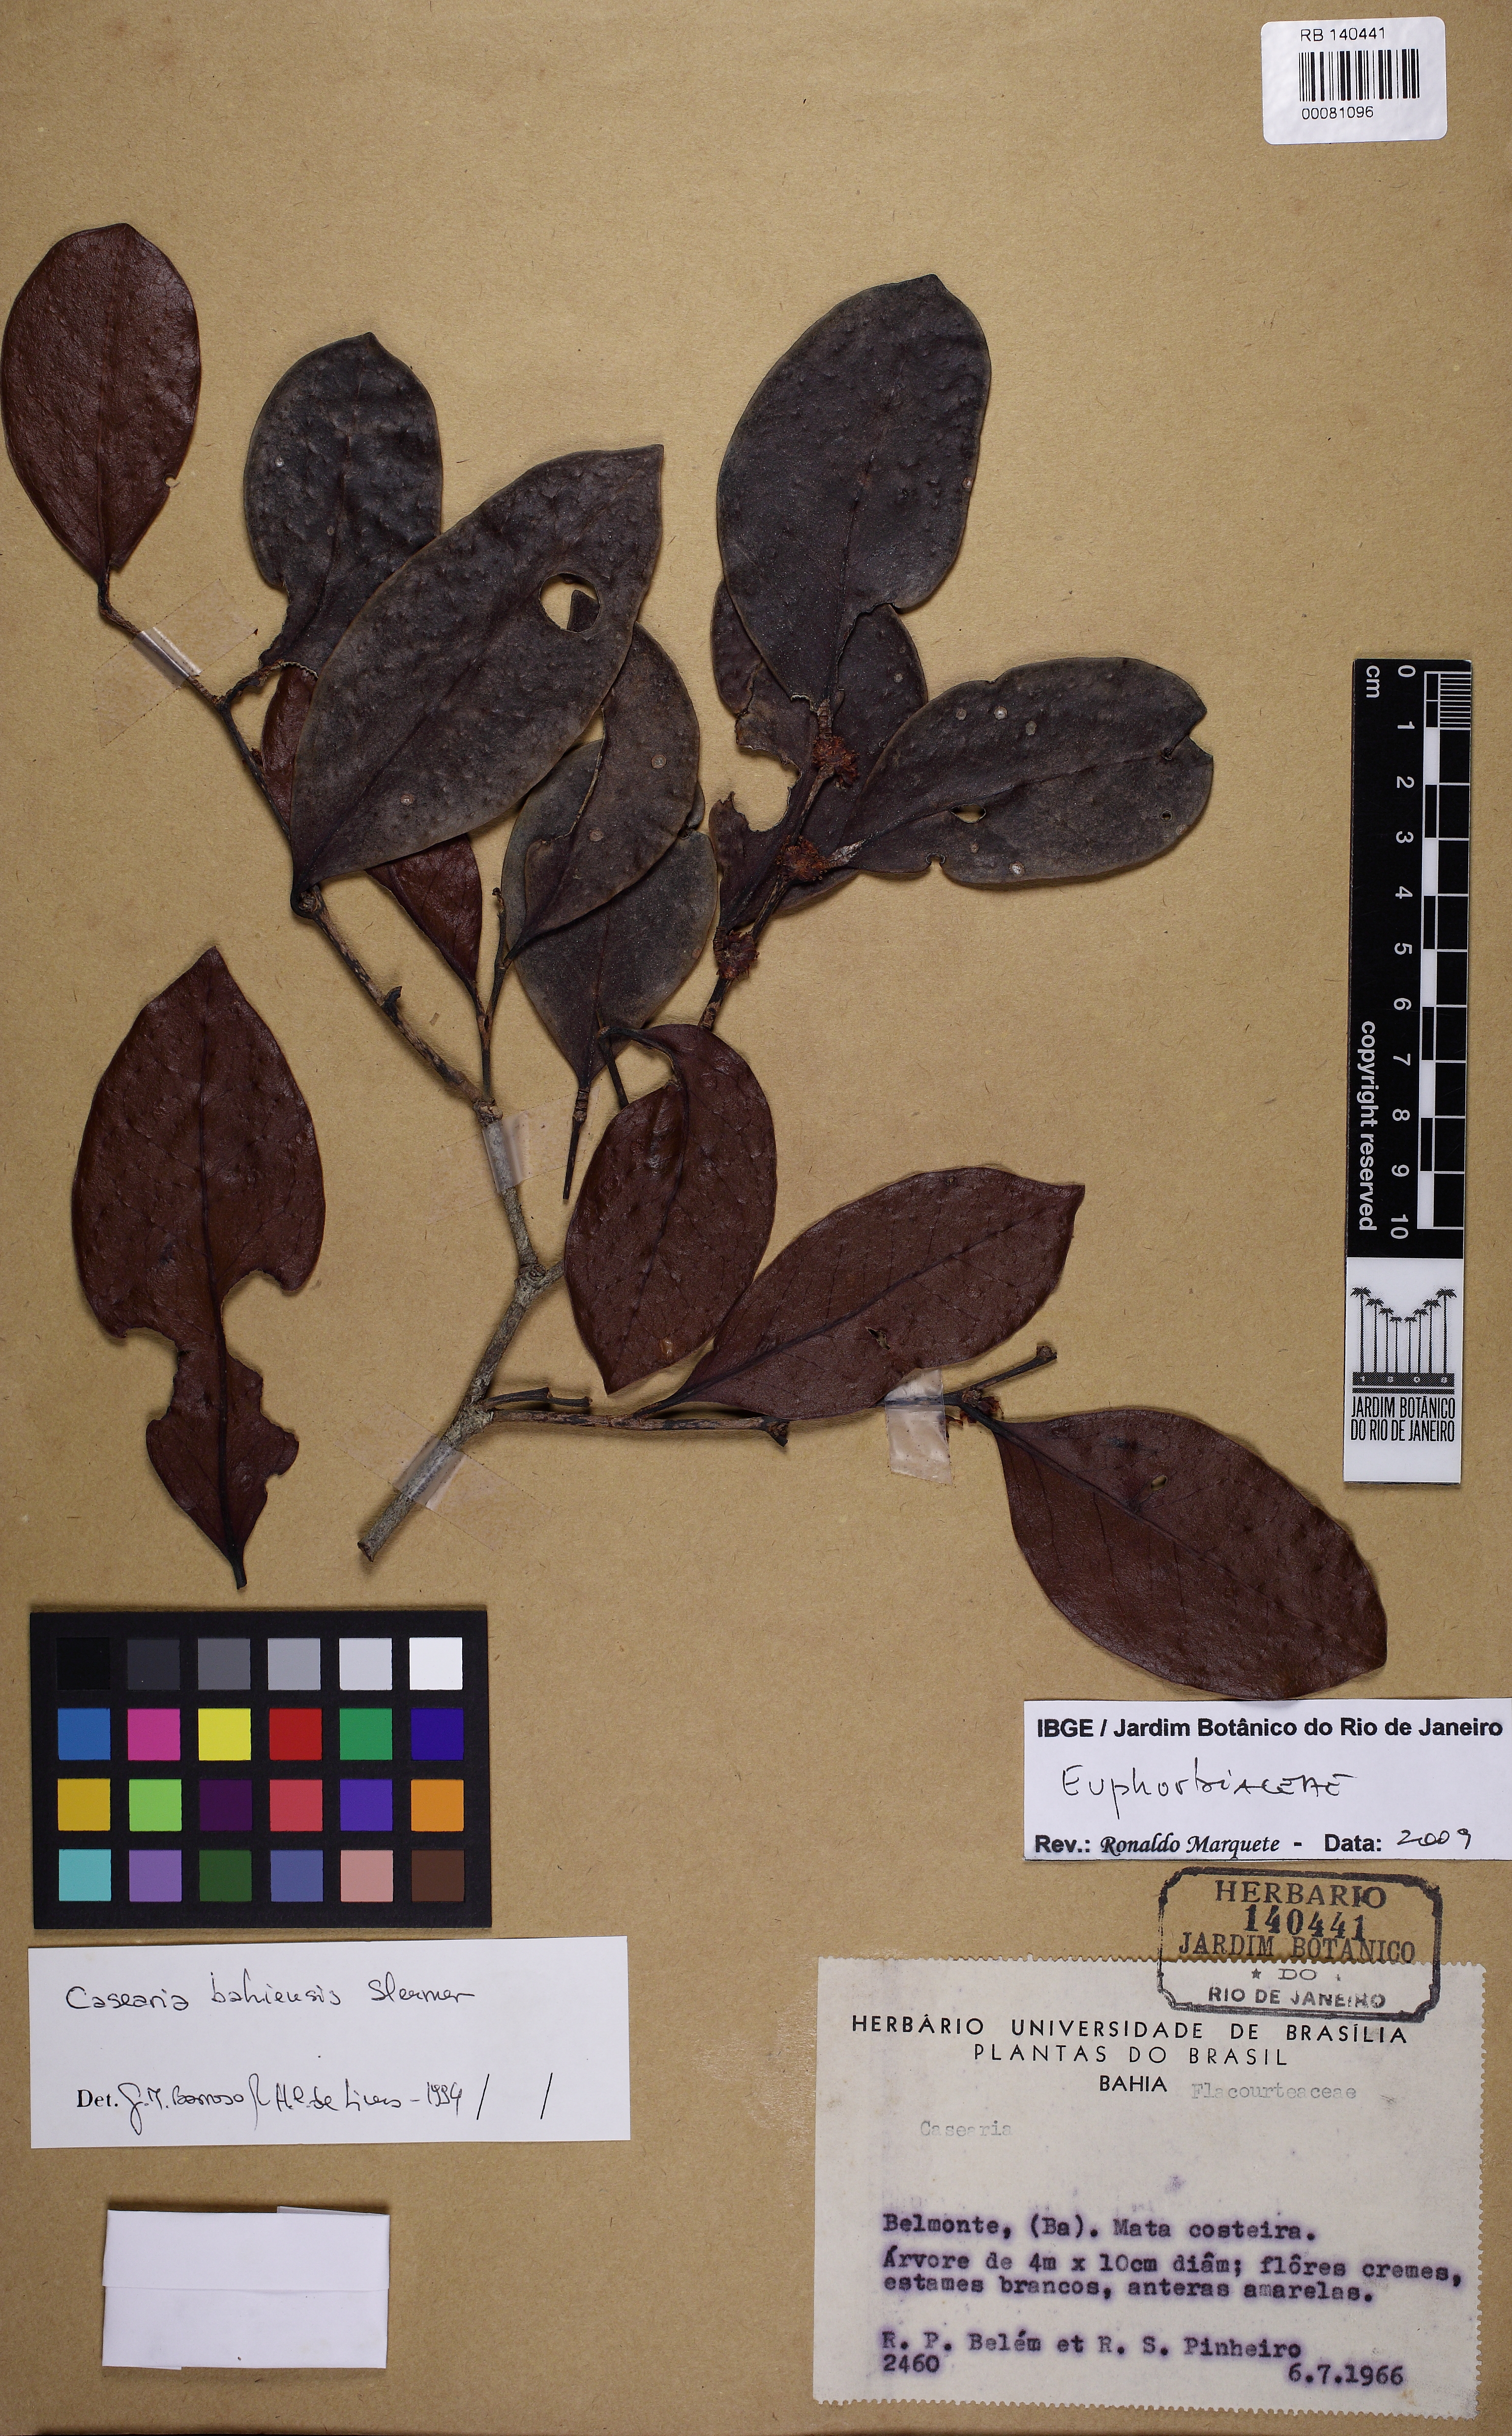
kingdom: Plantae
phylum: Tracheophyta
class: Magnoliopsida
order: Malpighiales
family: Peraceae
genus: Chaetocarpus
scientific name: Chaetocarpus myrsinites
